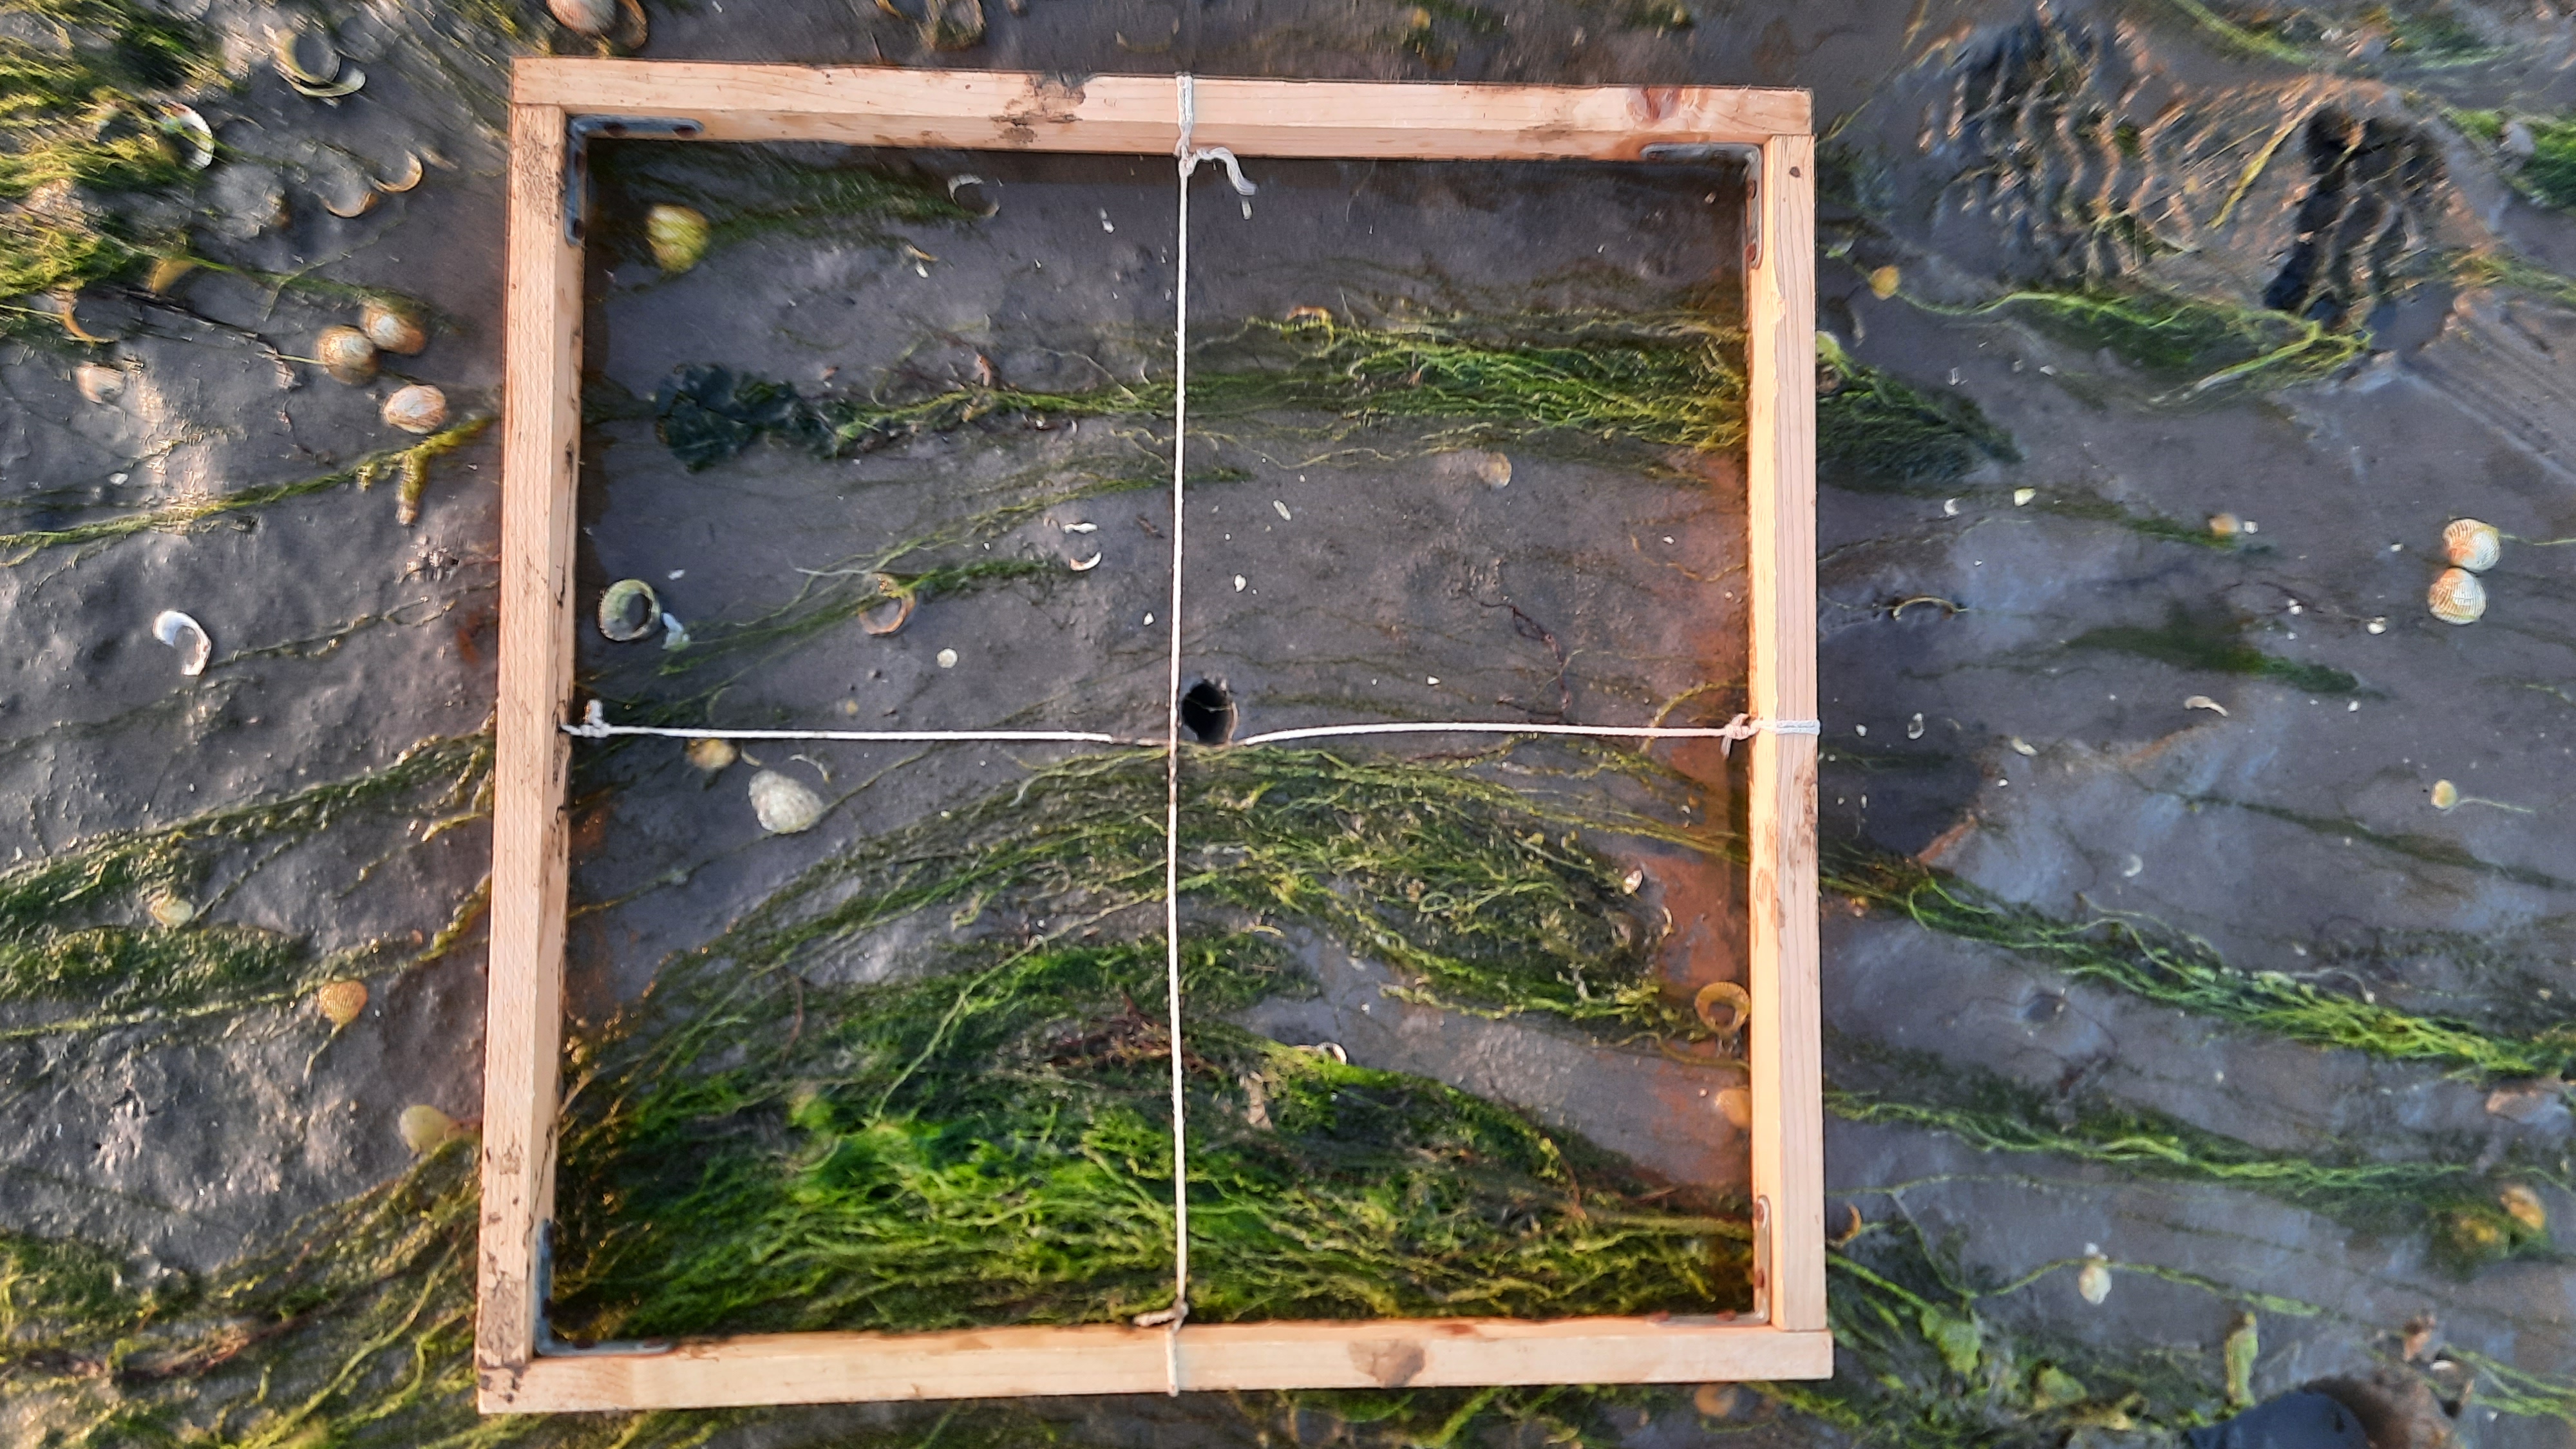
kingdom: Plantae
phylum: Chlorophyta
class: Ulvophyceae
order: Ulvales
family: Ulvaceae
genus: Ulva
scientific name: Ulva
